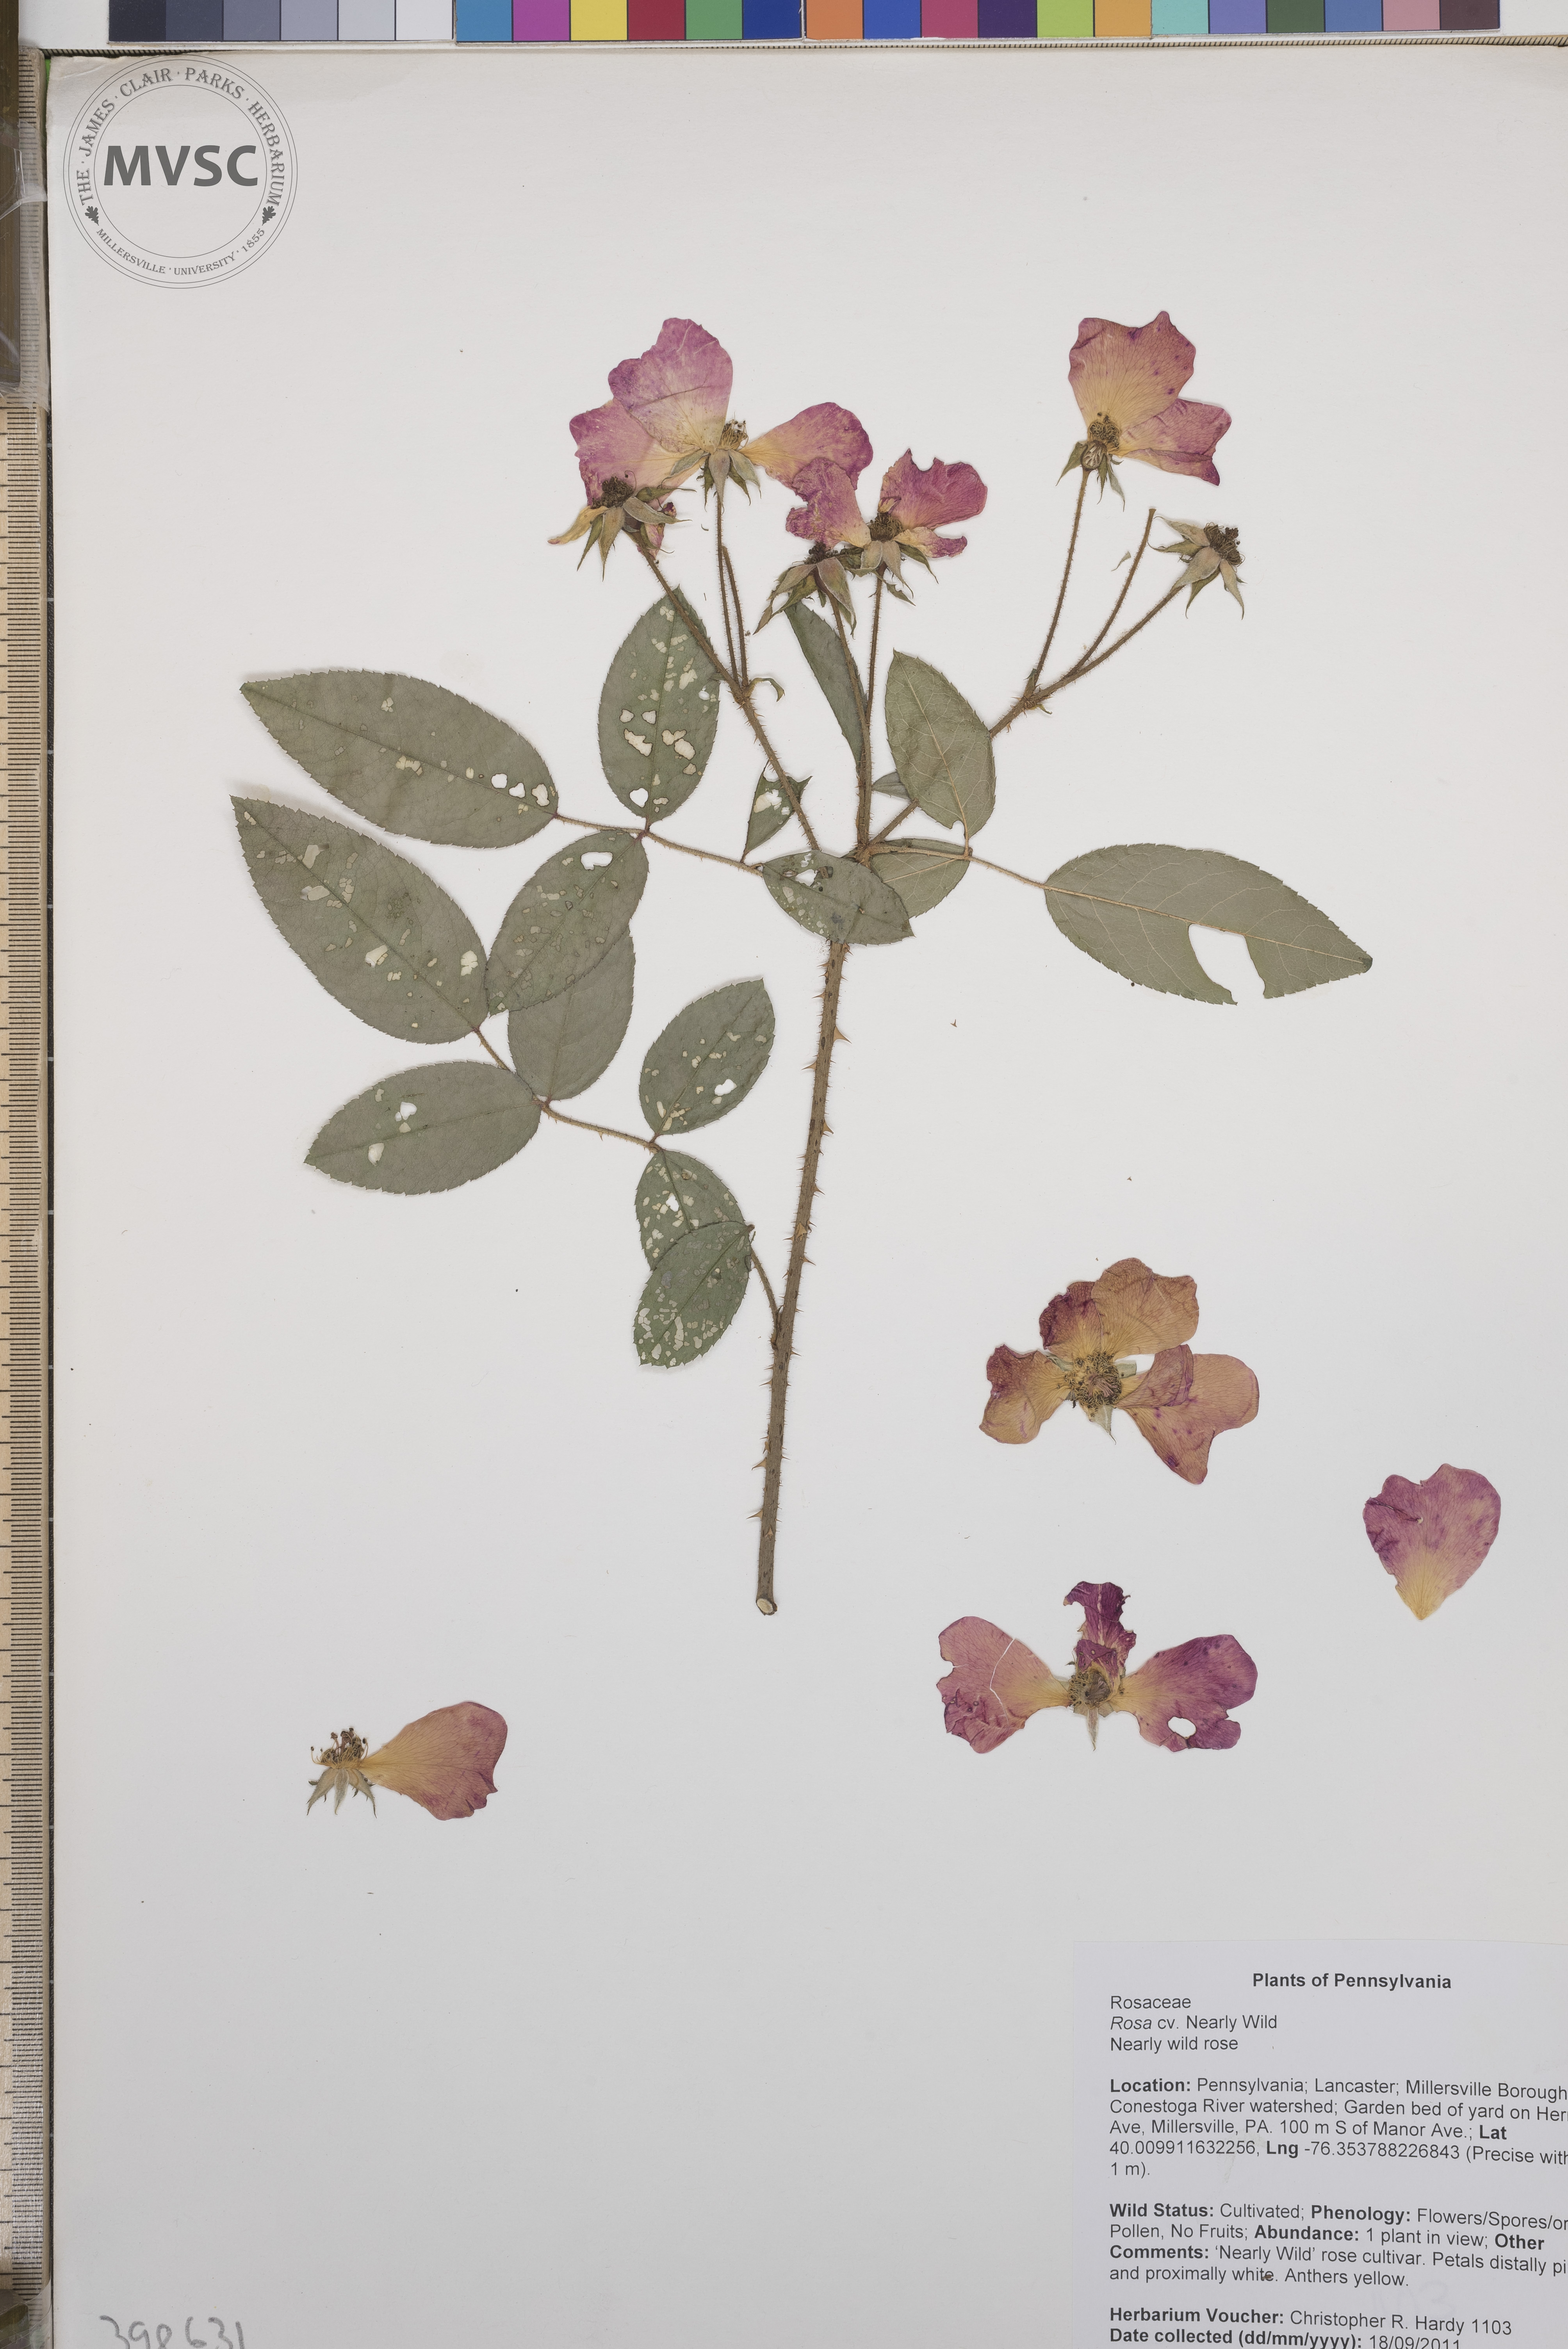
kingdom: Plantae
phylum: Tracheophyta
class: Magnoliopsida
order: Rosales
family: Rosaceae
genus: Rosa
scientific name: Rosa
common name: Cinnamon rose
